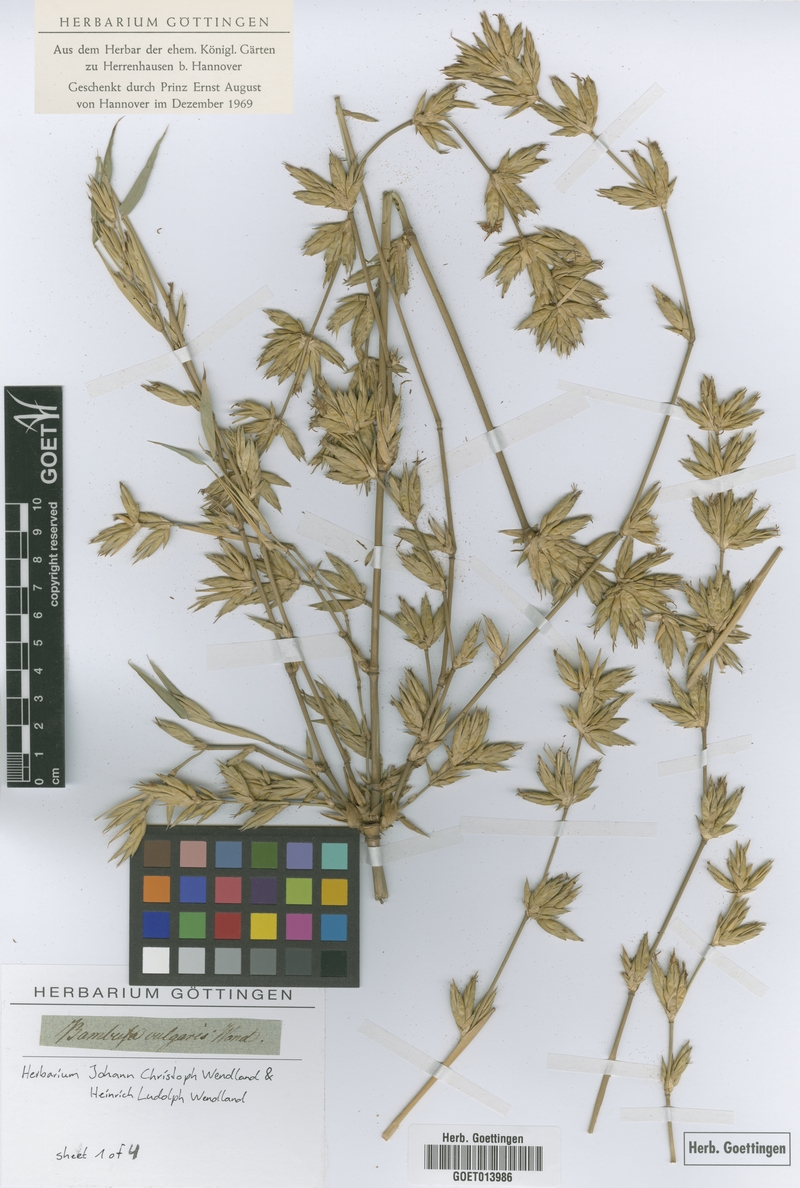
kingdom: Plantae
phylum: Tracheophyta
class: Liliopsida
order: Poales
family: Poaceae
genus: Bambusa
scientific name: Bambusa vulgaris
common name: Common bamboo
